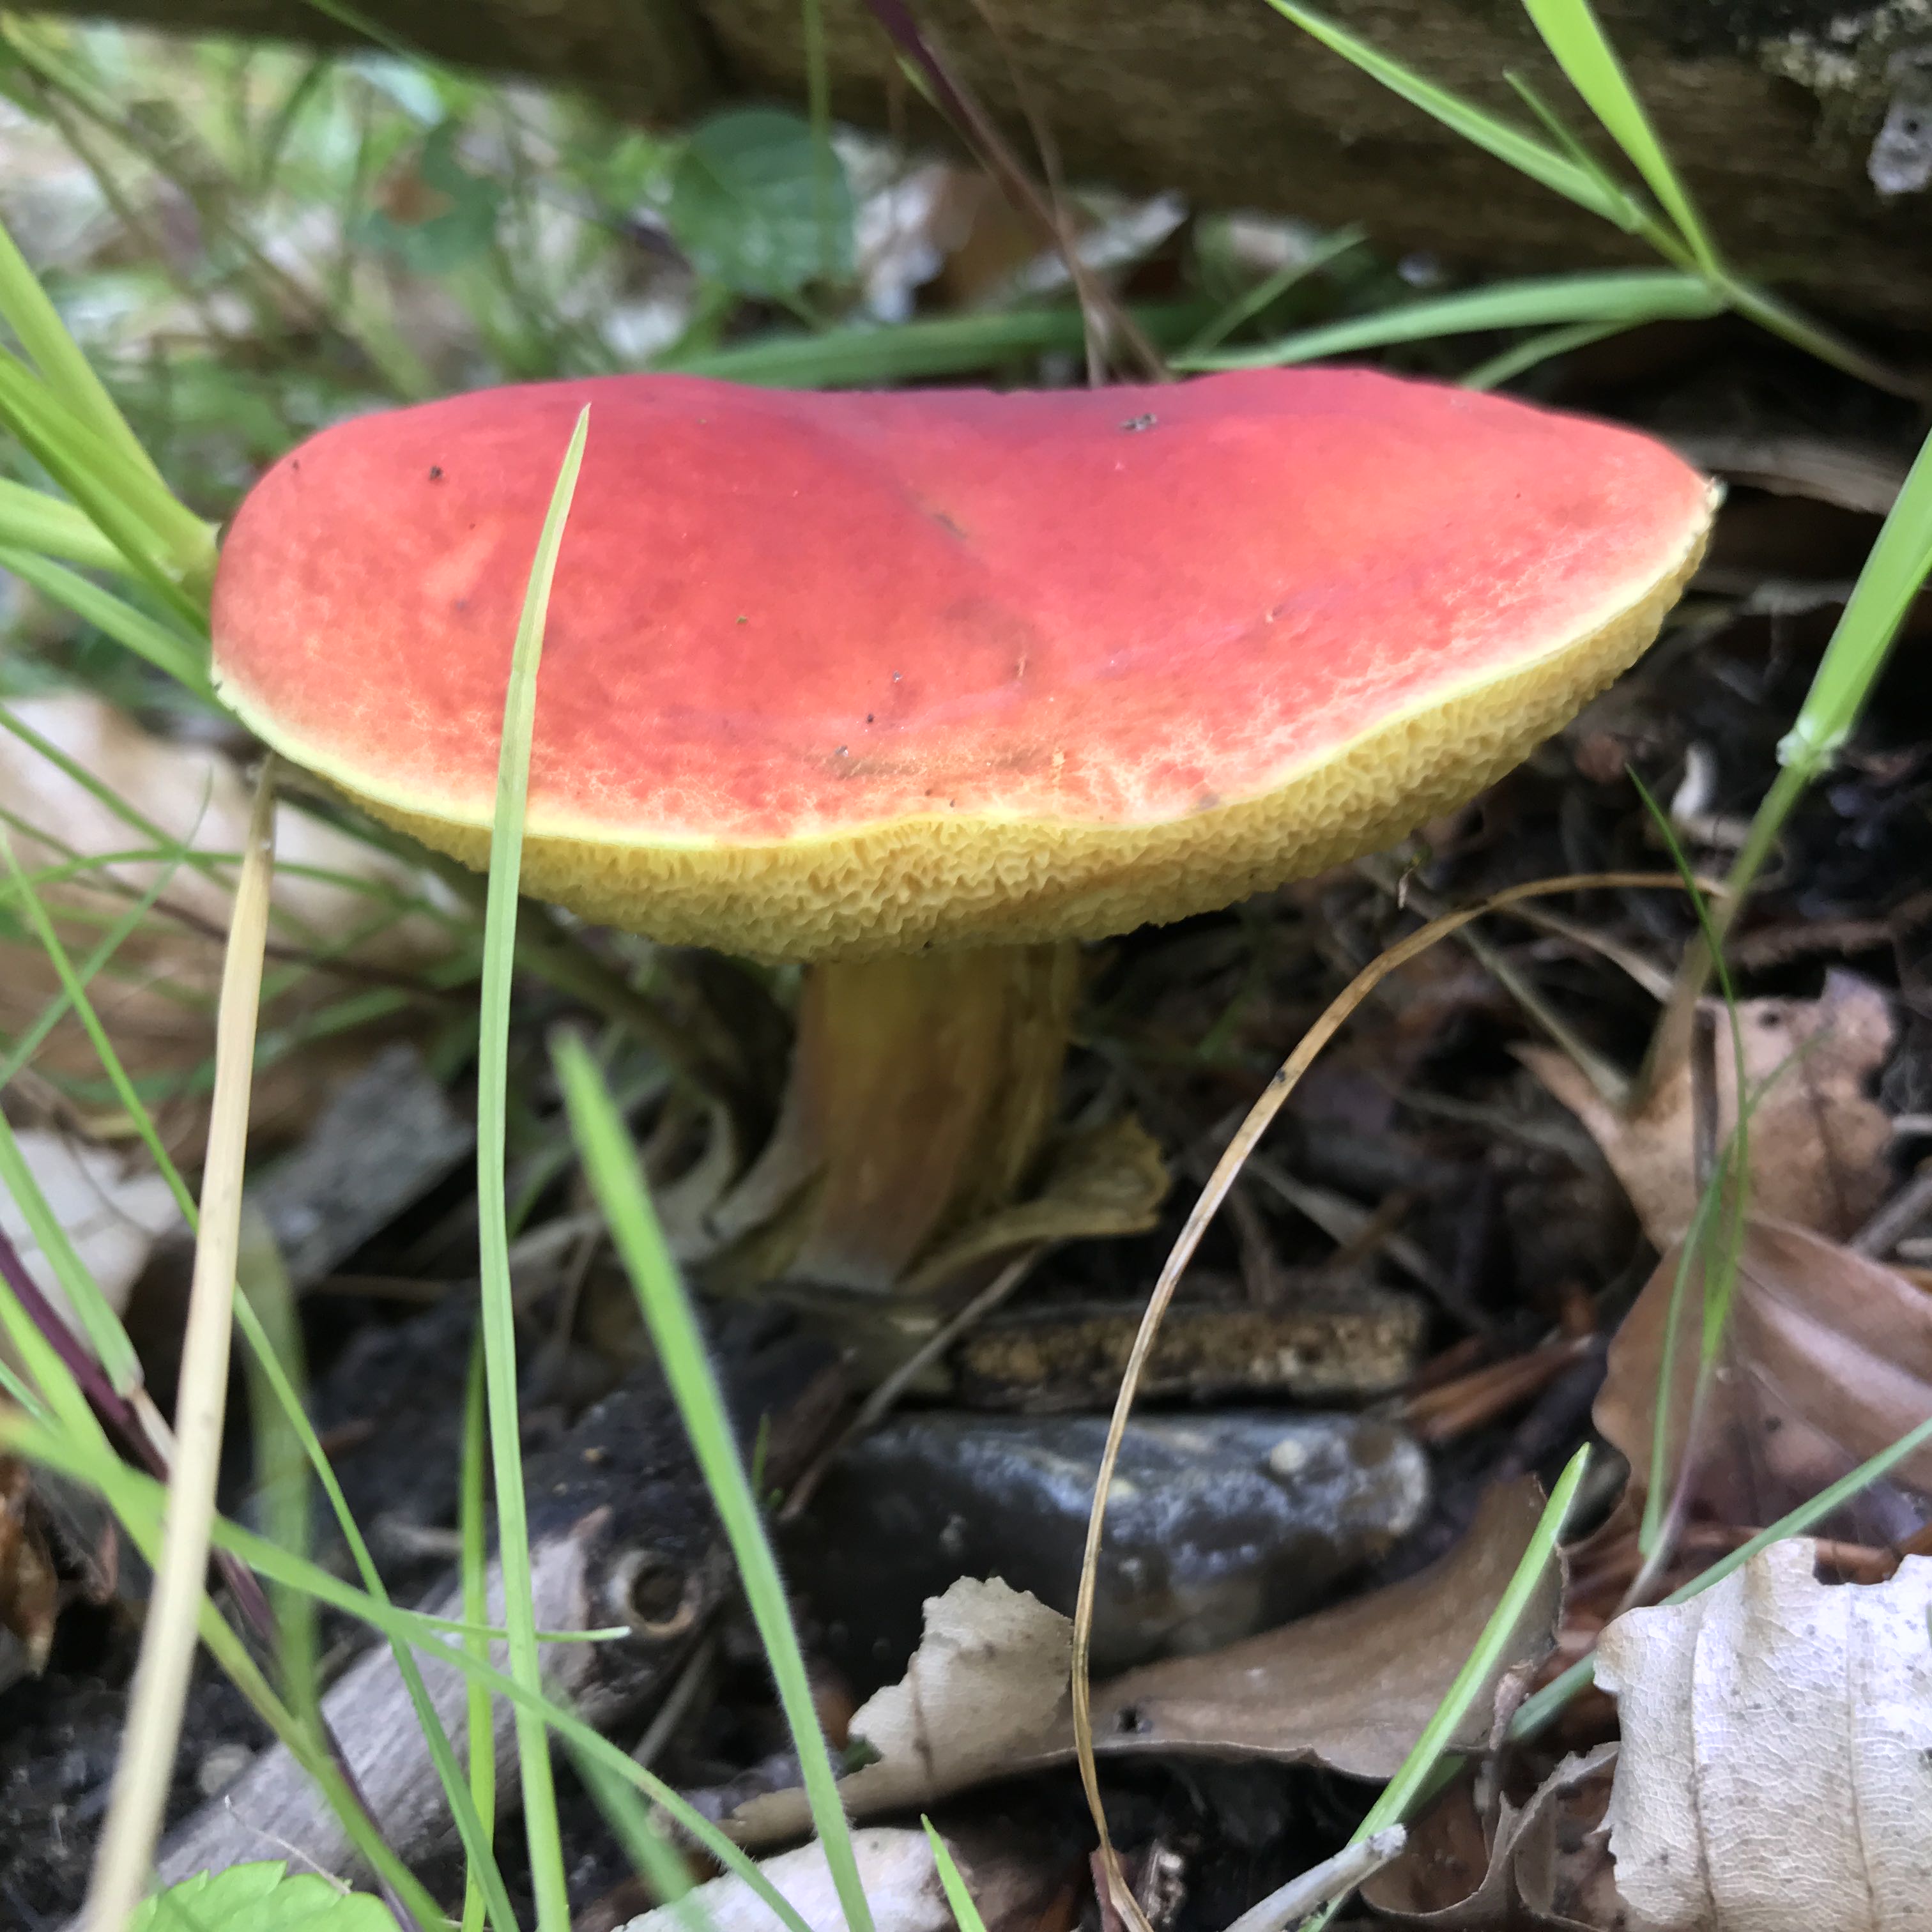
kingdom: Fungi
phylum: Basidiomycota
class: Agaricomycetes
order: Boletales
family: Boletaceae
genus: Hortiboletus
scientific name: Hortiboletus rubellus
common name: blodrød rørhat
